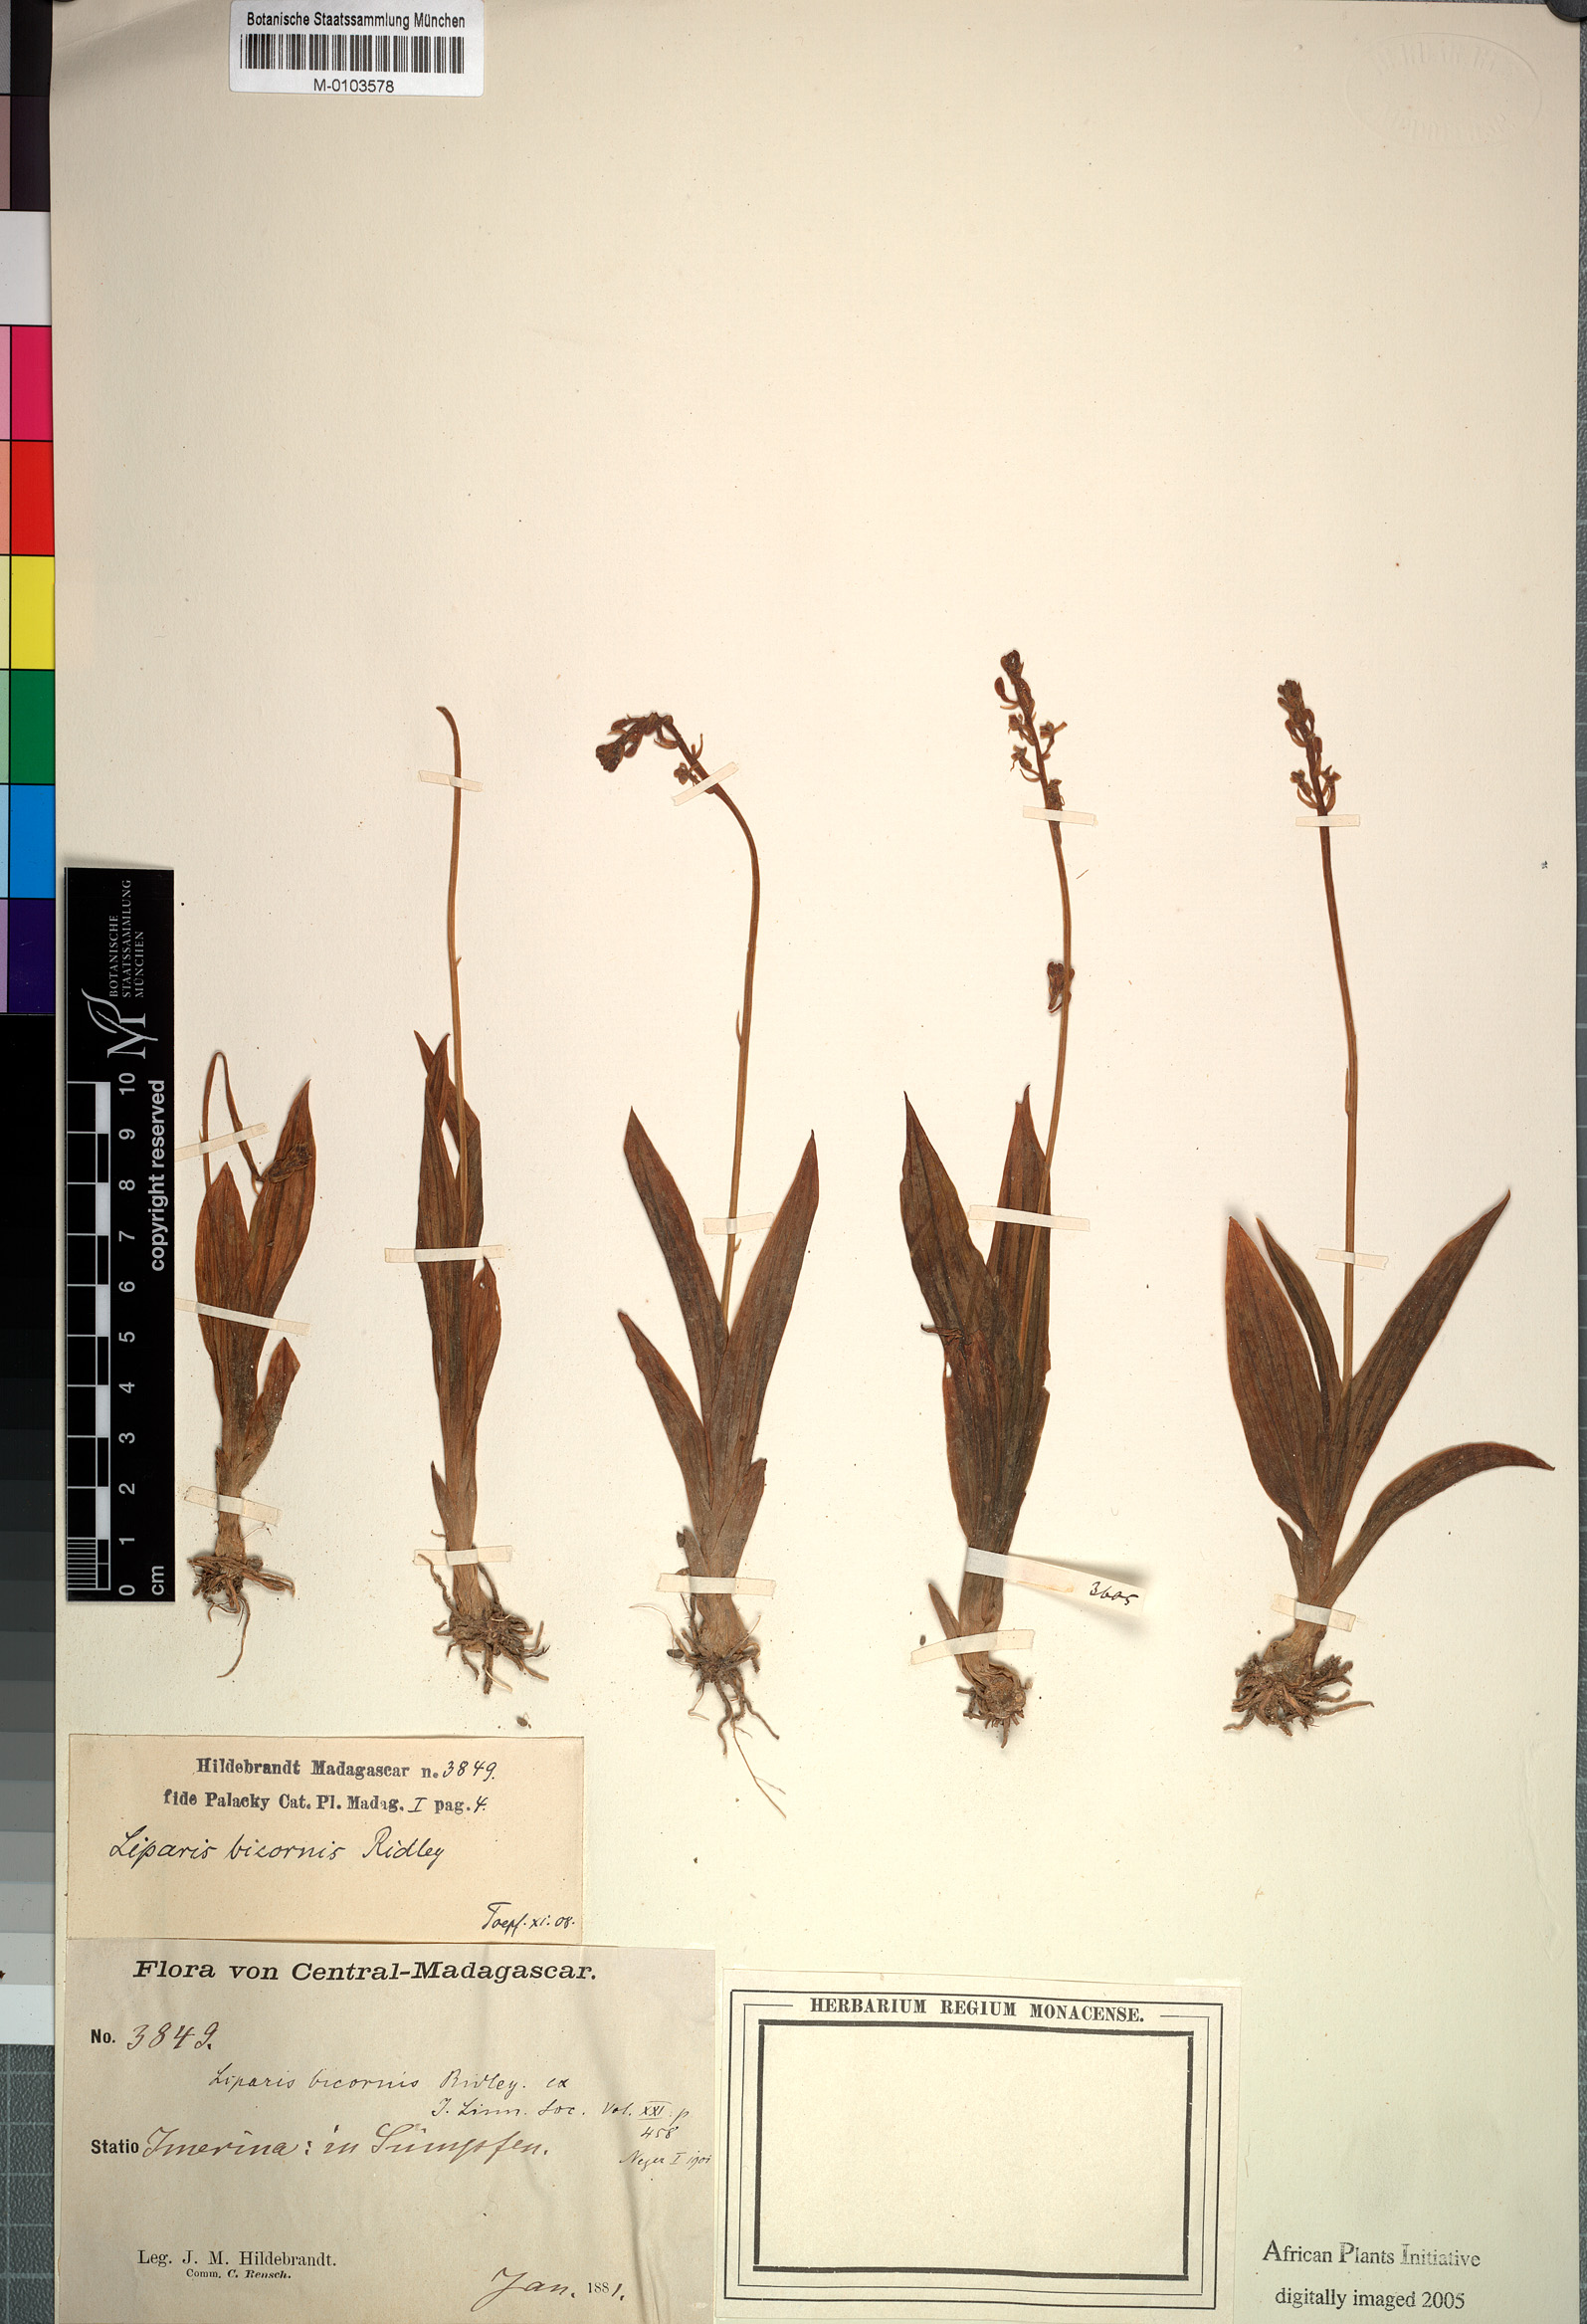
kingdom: Plantae
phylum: Tracheophyta
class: Liliopsida
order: Asparagales
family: Orchidaceae
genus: Liparis
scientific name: Liparis bicornis
